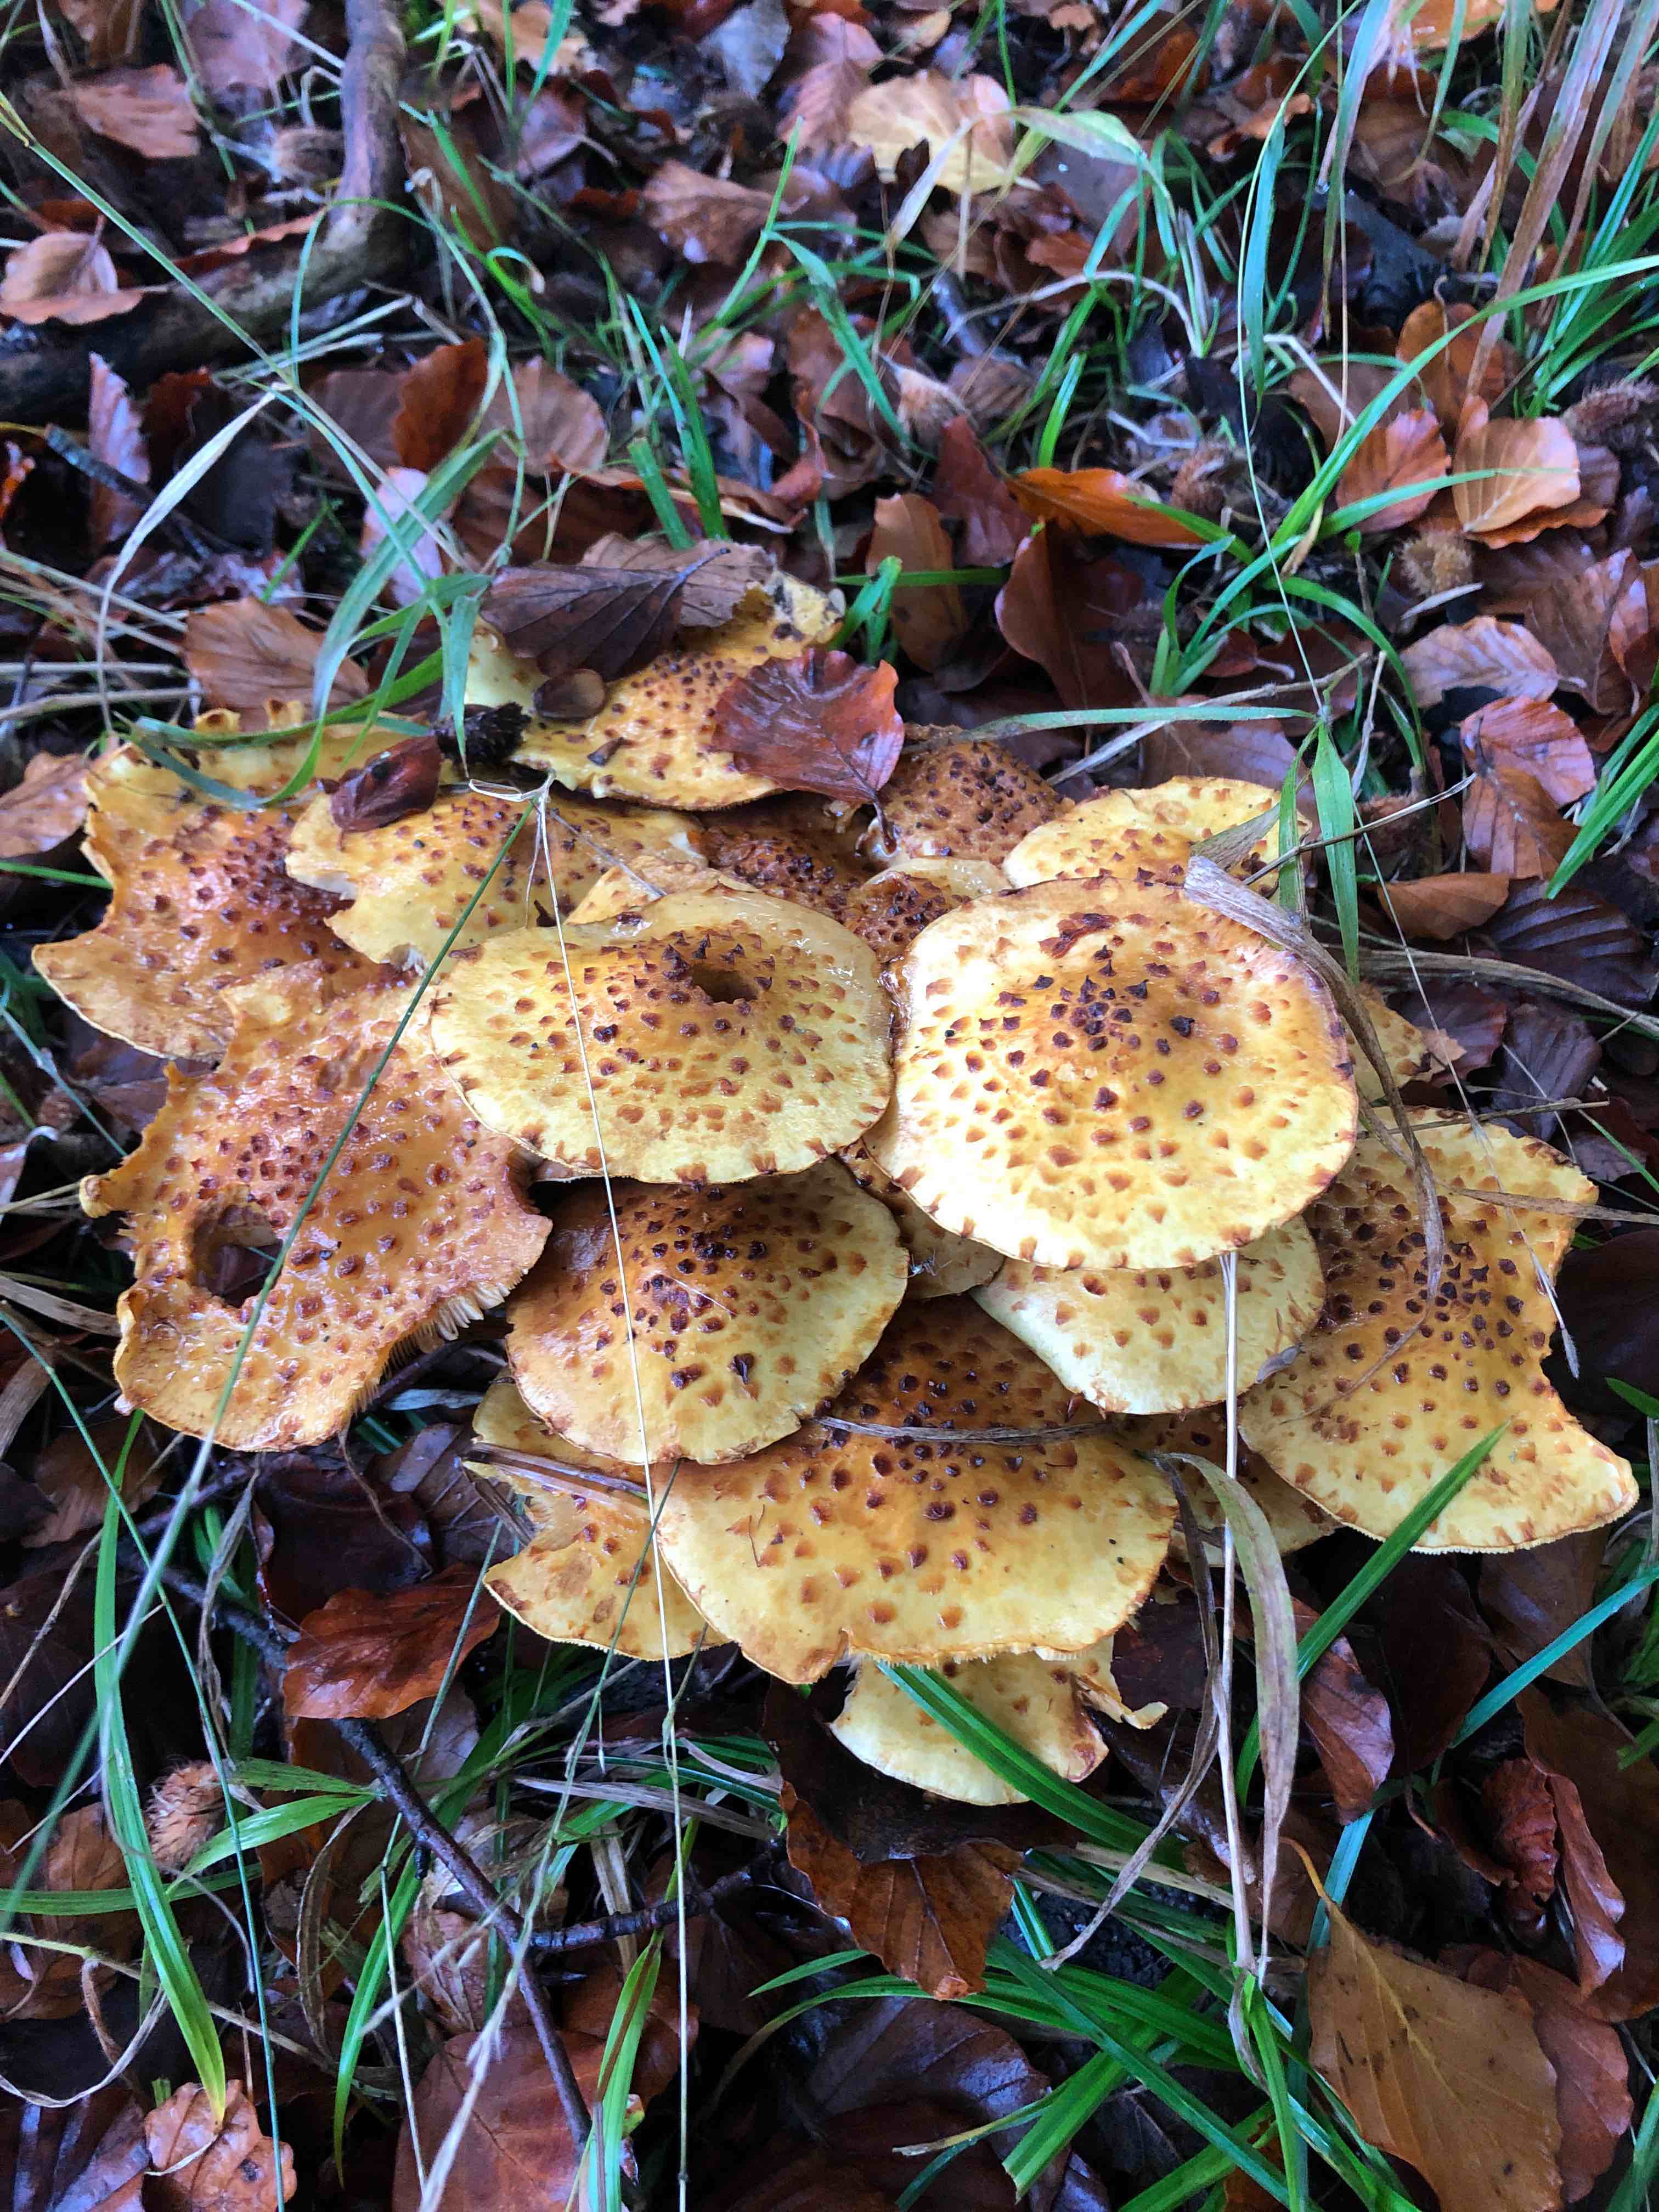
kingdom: Fungi
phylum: Basidiomycota
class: Agaricomycetes
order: Agaricales
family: Strophariaceae
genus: Pholiota
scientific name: Pholiota jahnii
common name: slimet skælhat
